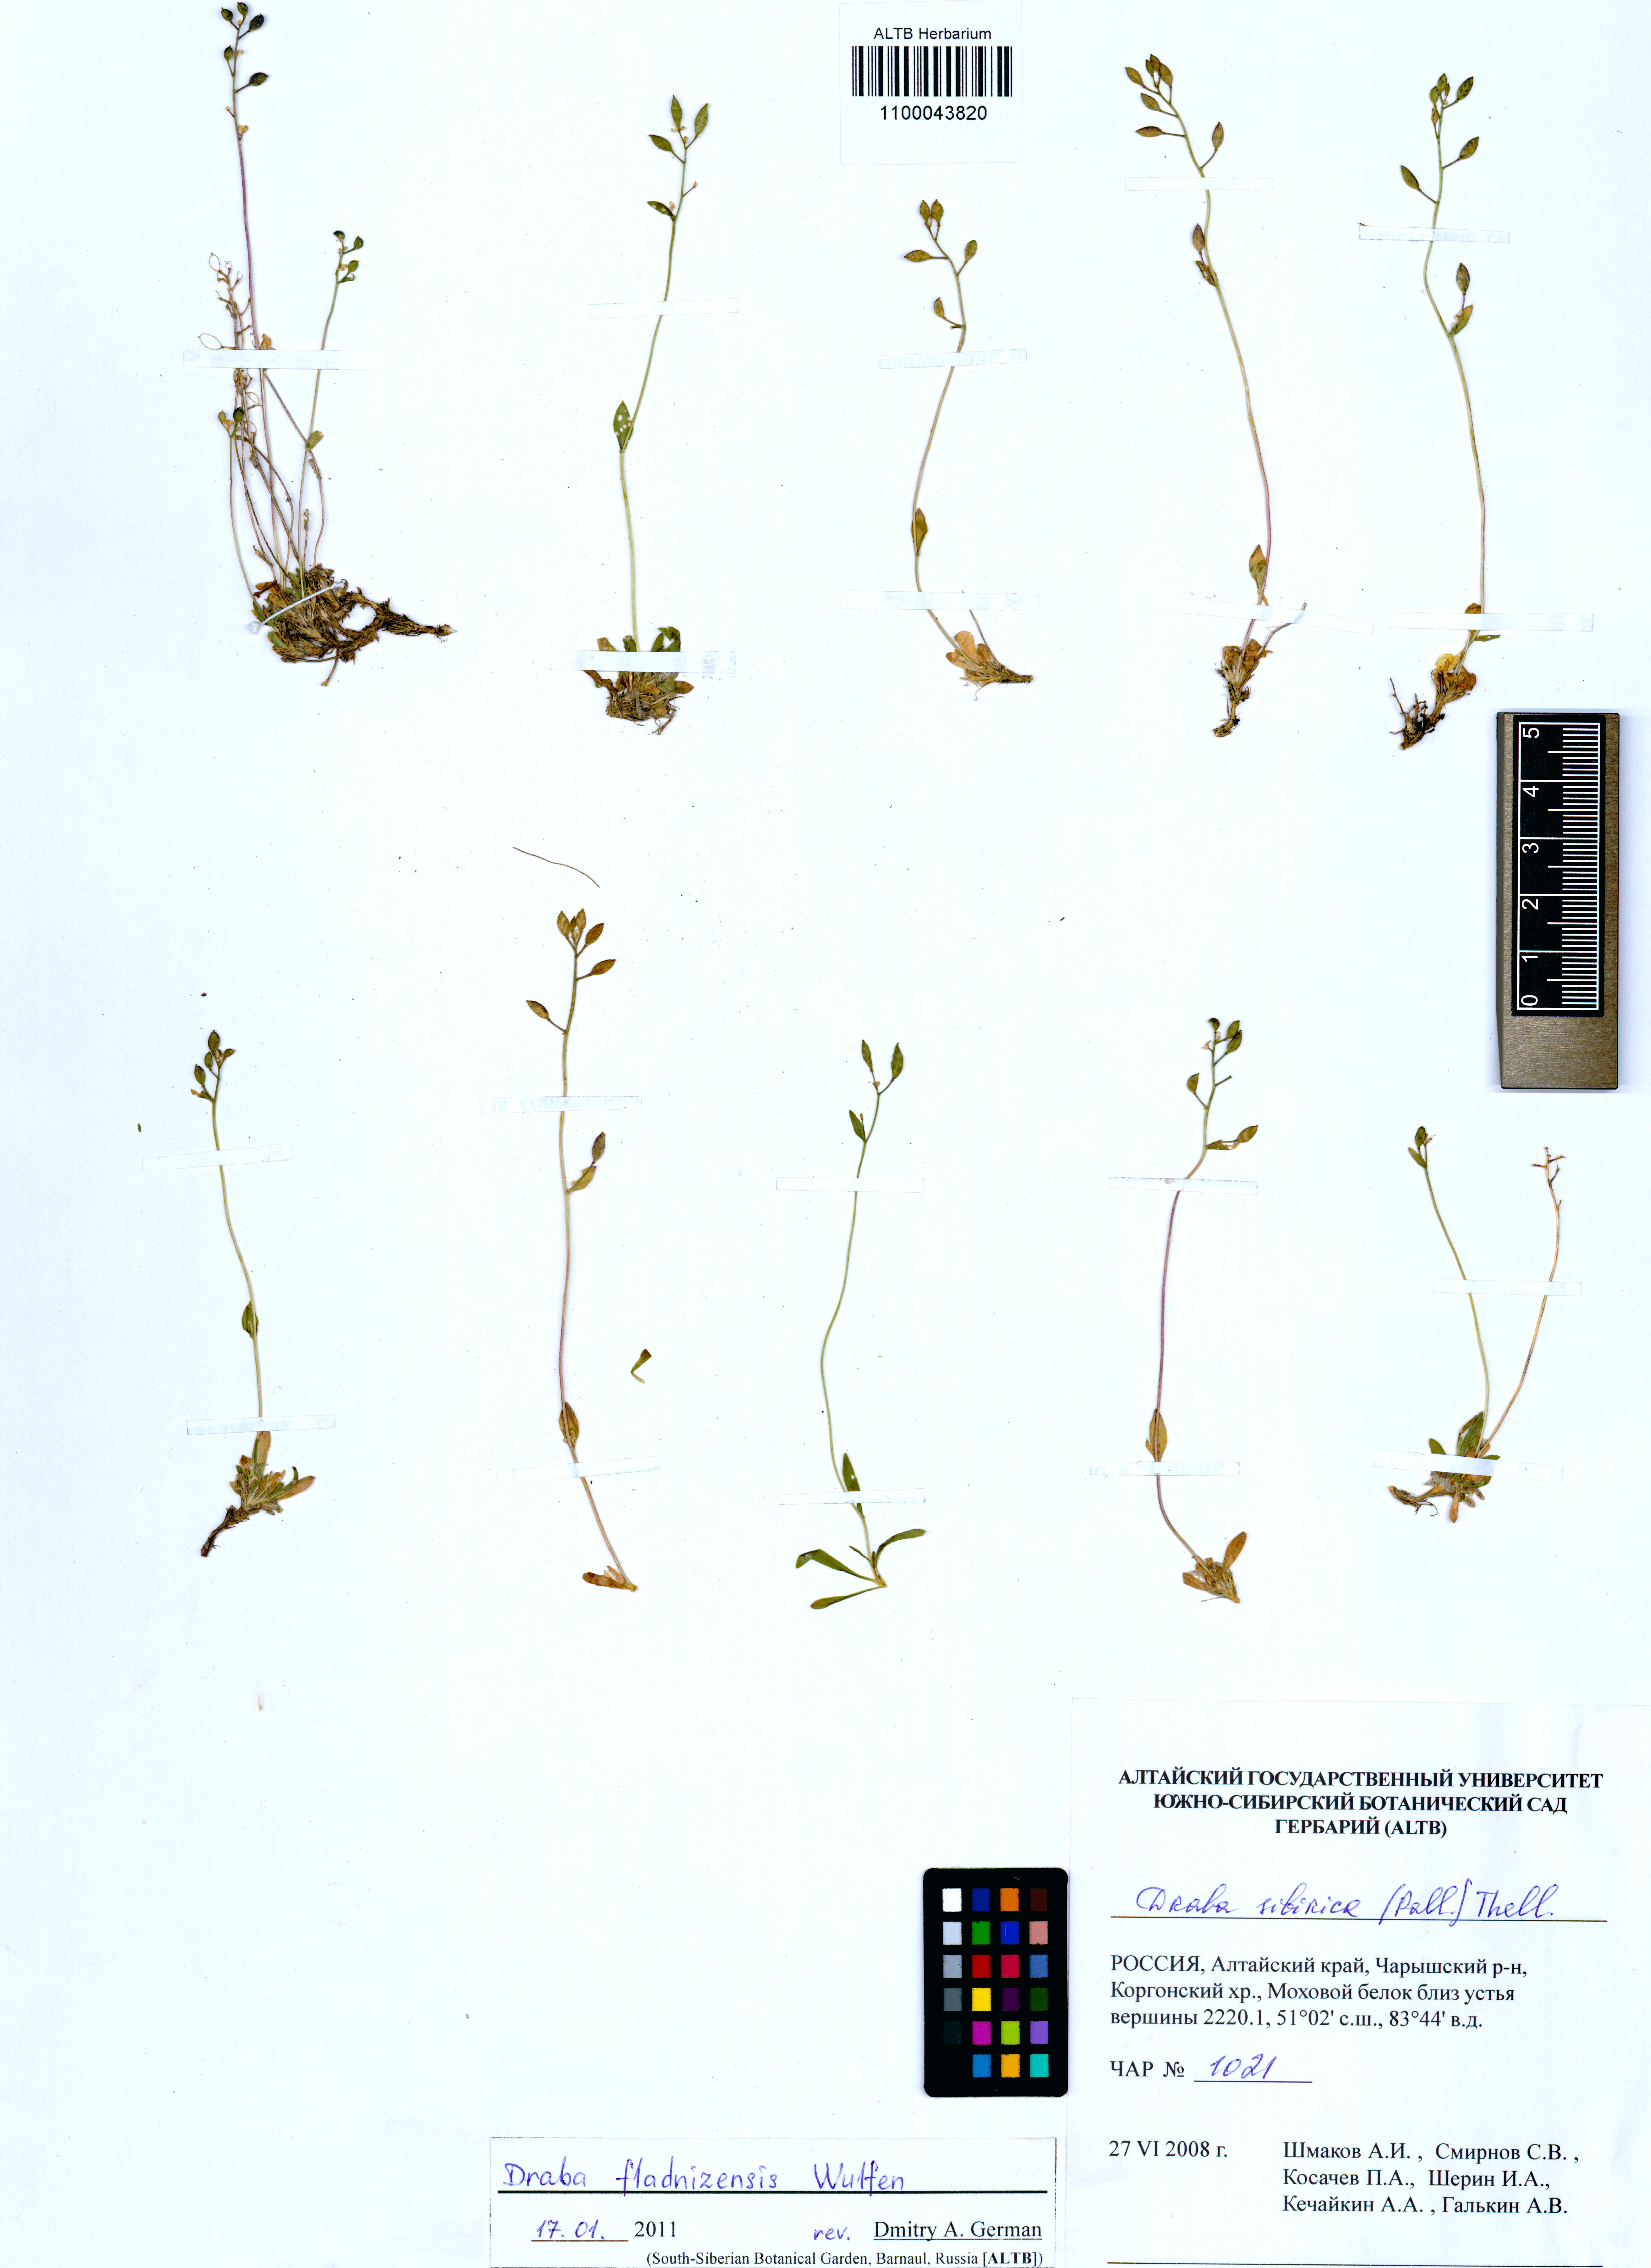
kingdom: Plantae
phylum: Tracheophyta
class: Magnoliopsida
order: Brassicales
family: Brassicaceae
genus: Draba
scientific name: Draba fladnizensis
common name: Austrian draba
